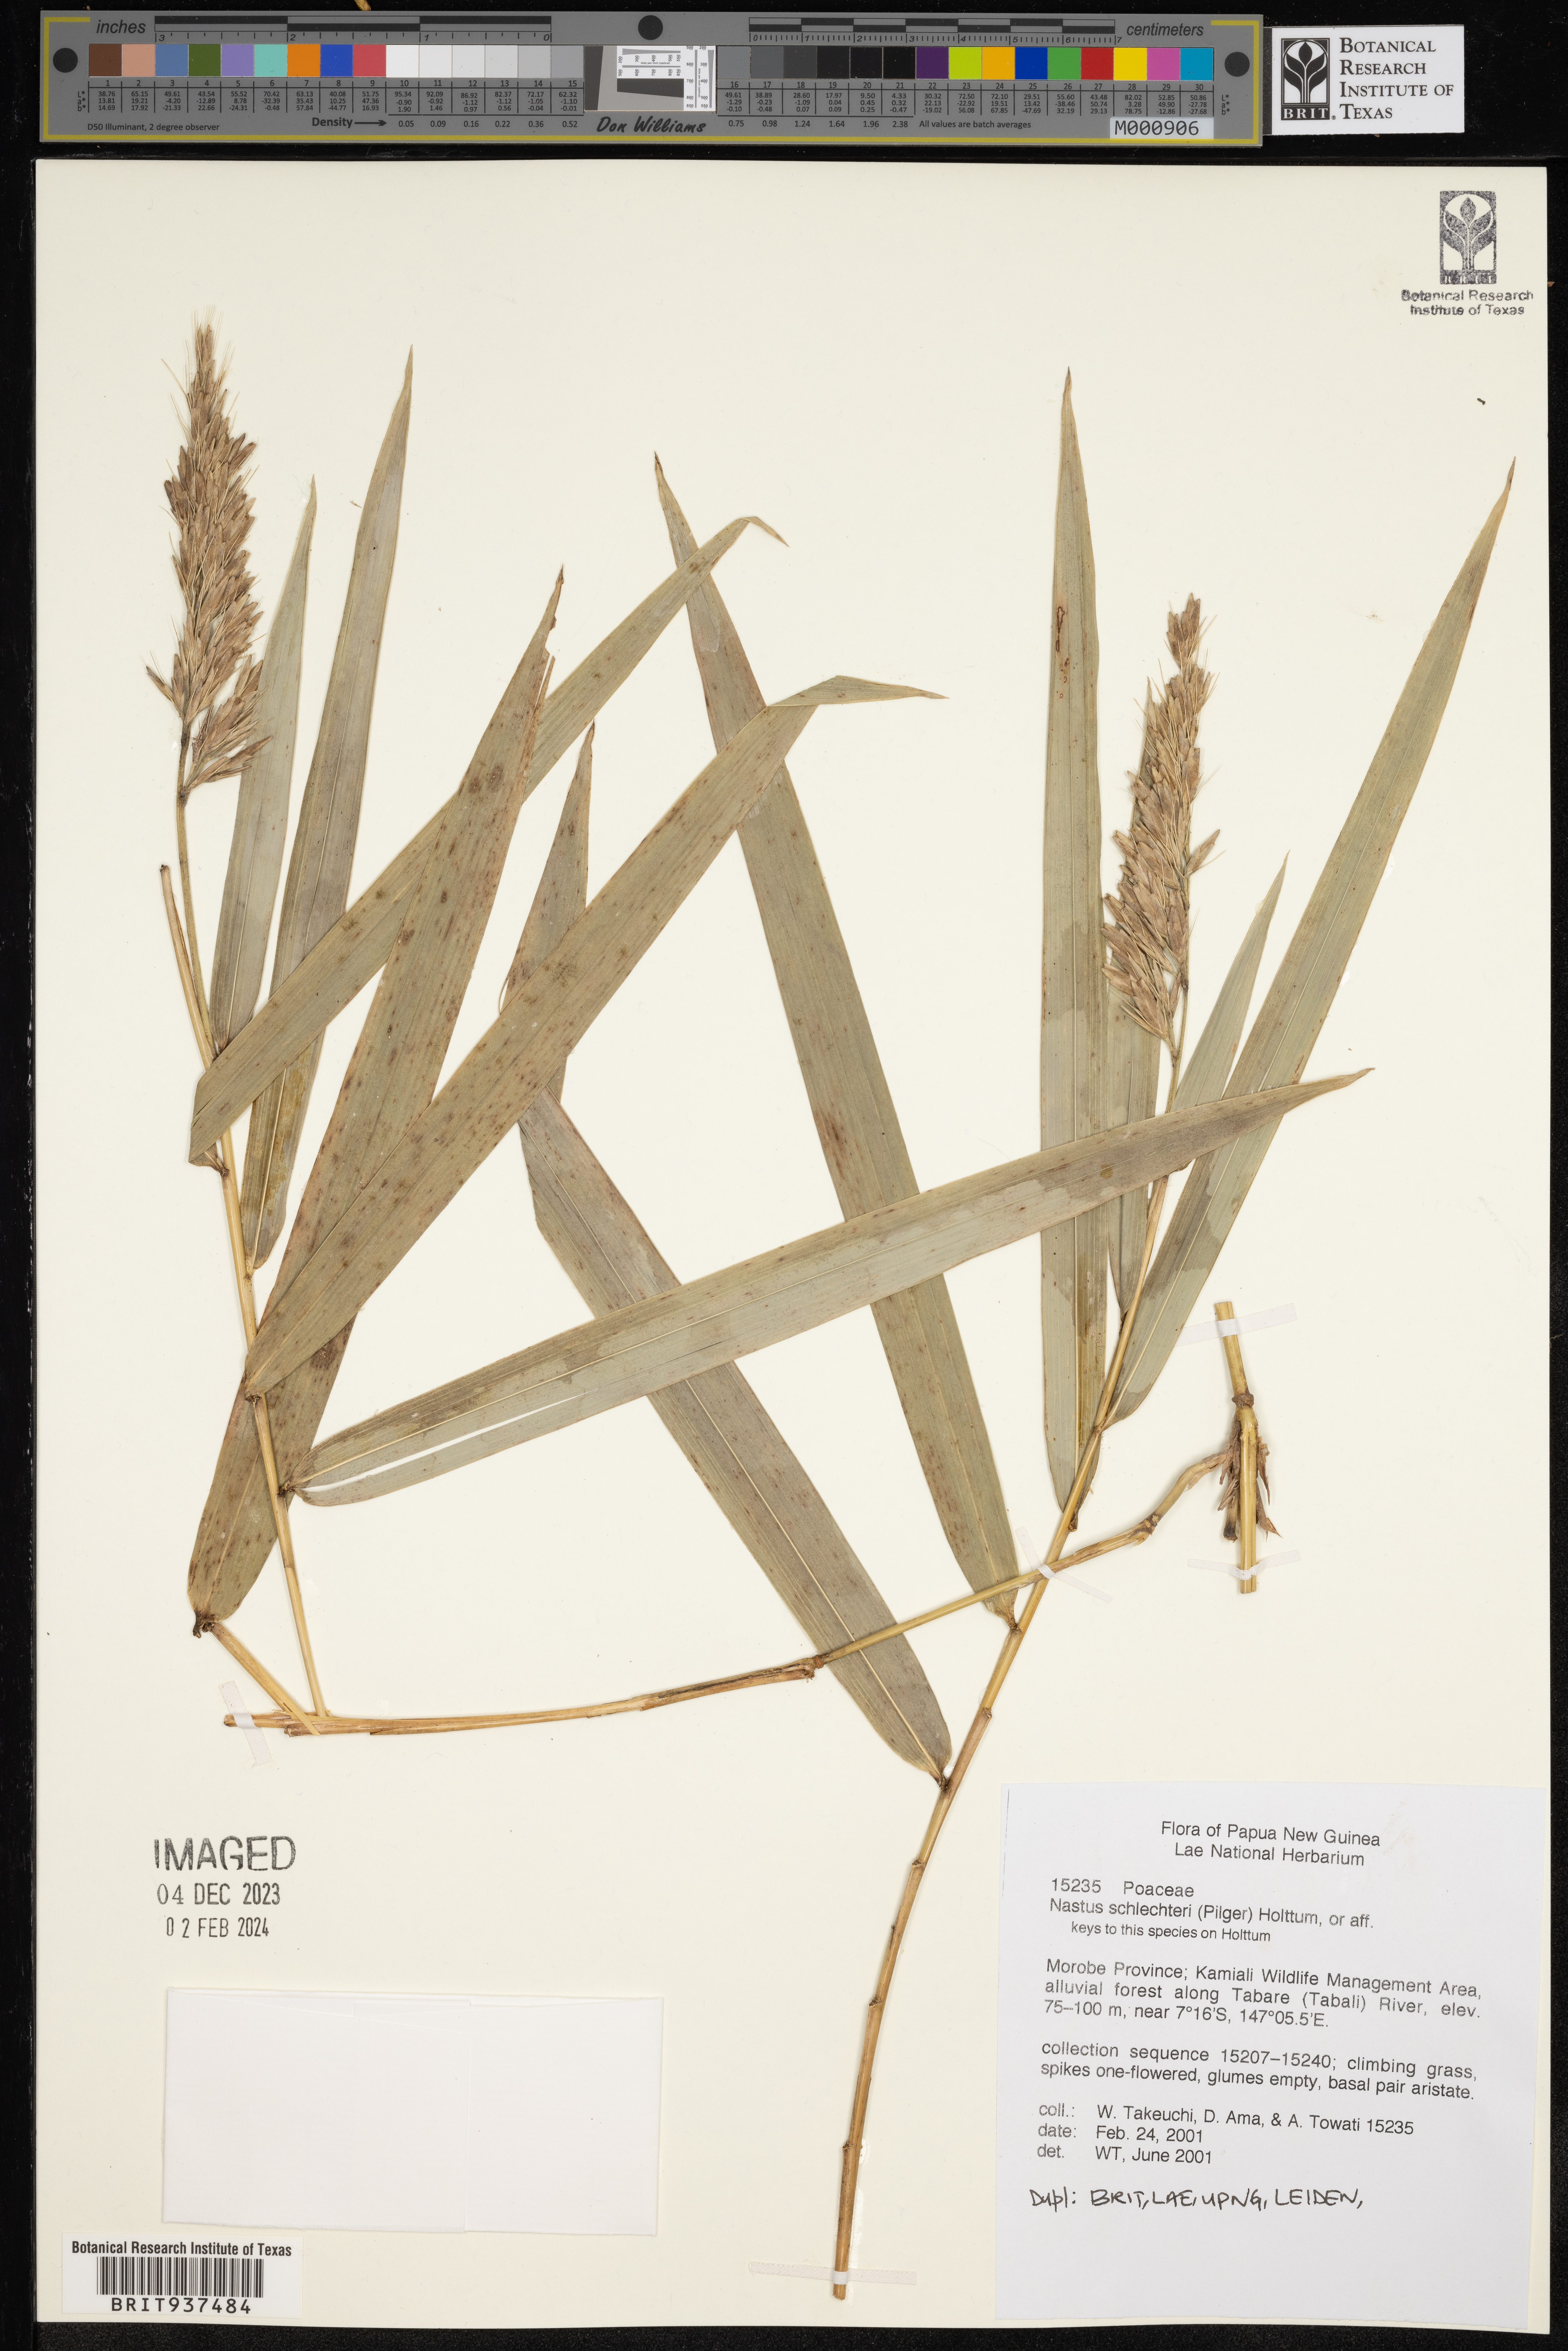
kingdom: Plantae
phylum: Tracheophyta
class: Liliopsida
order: Poales
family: Poaceae
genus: Nastus
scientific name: Nastus
